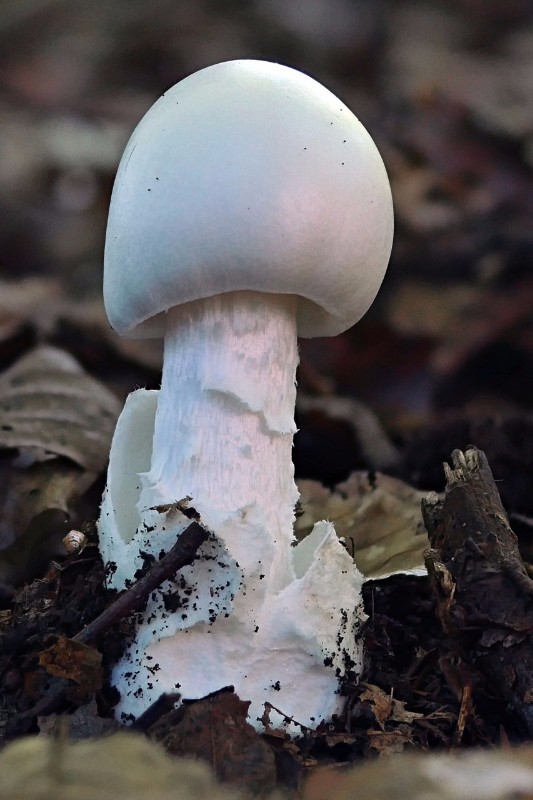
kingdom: Fungi
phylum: Basidiomycota
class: Agaricomycetes
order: Agaricales
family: Amanitaceae
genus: Amanita
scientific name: Amanita virosa
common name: snehvid fluesvamp
